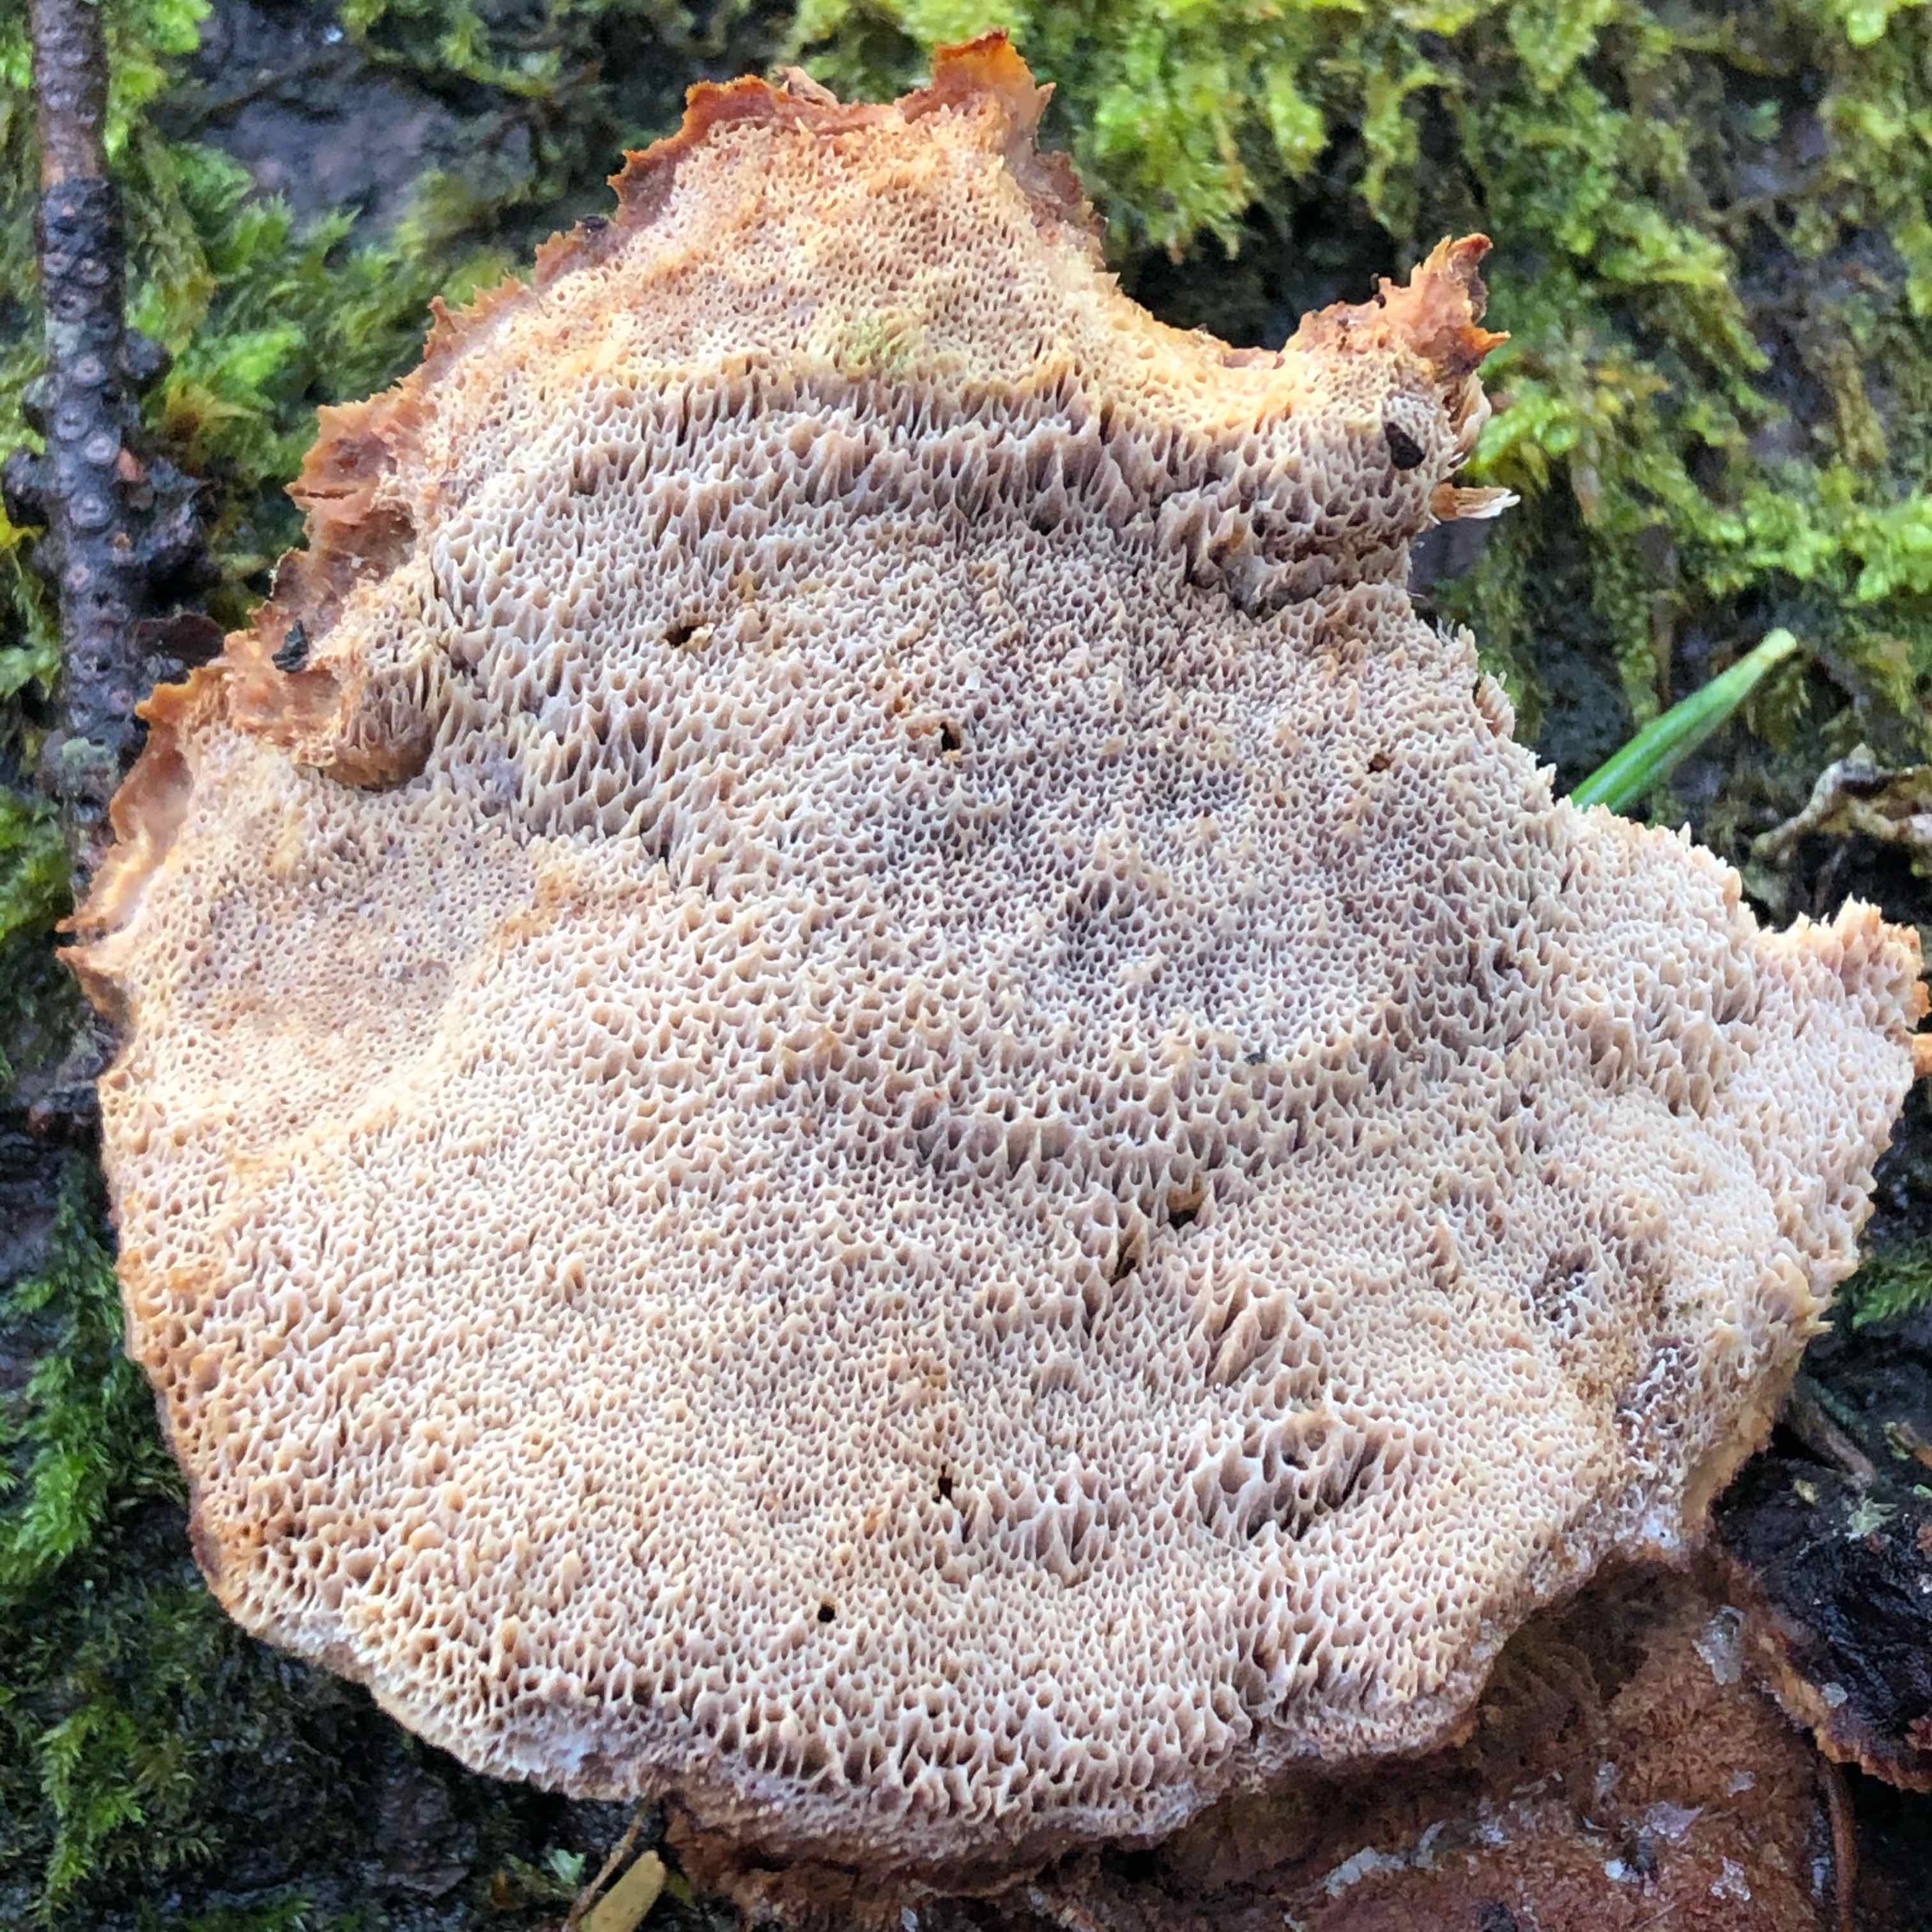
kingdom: Fungi
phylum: Basidiomycota
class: Agaricomycetes
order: Polyporales
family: Ischnodermataceae
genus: Ischnoderma
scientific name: Ischnoderma benzoinum
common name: gran-tjæreporesvamp
